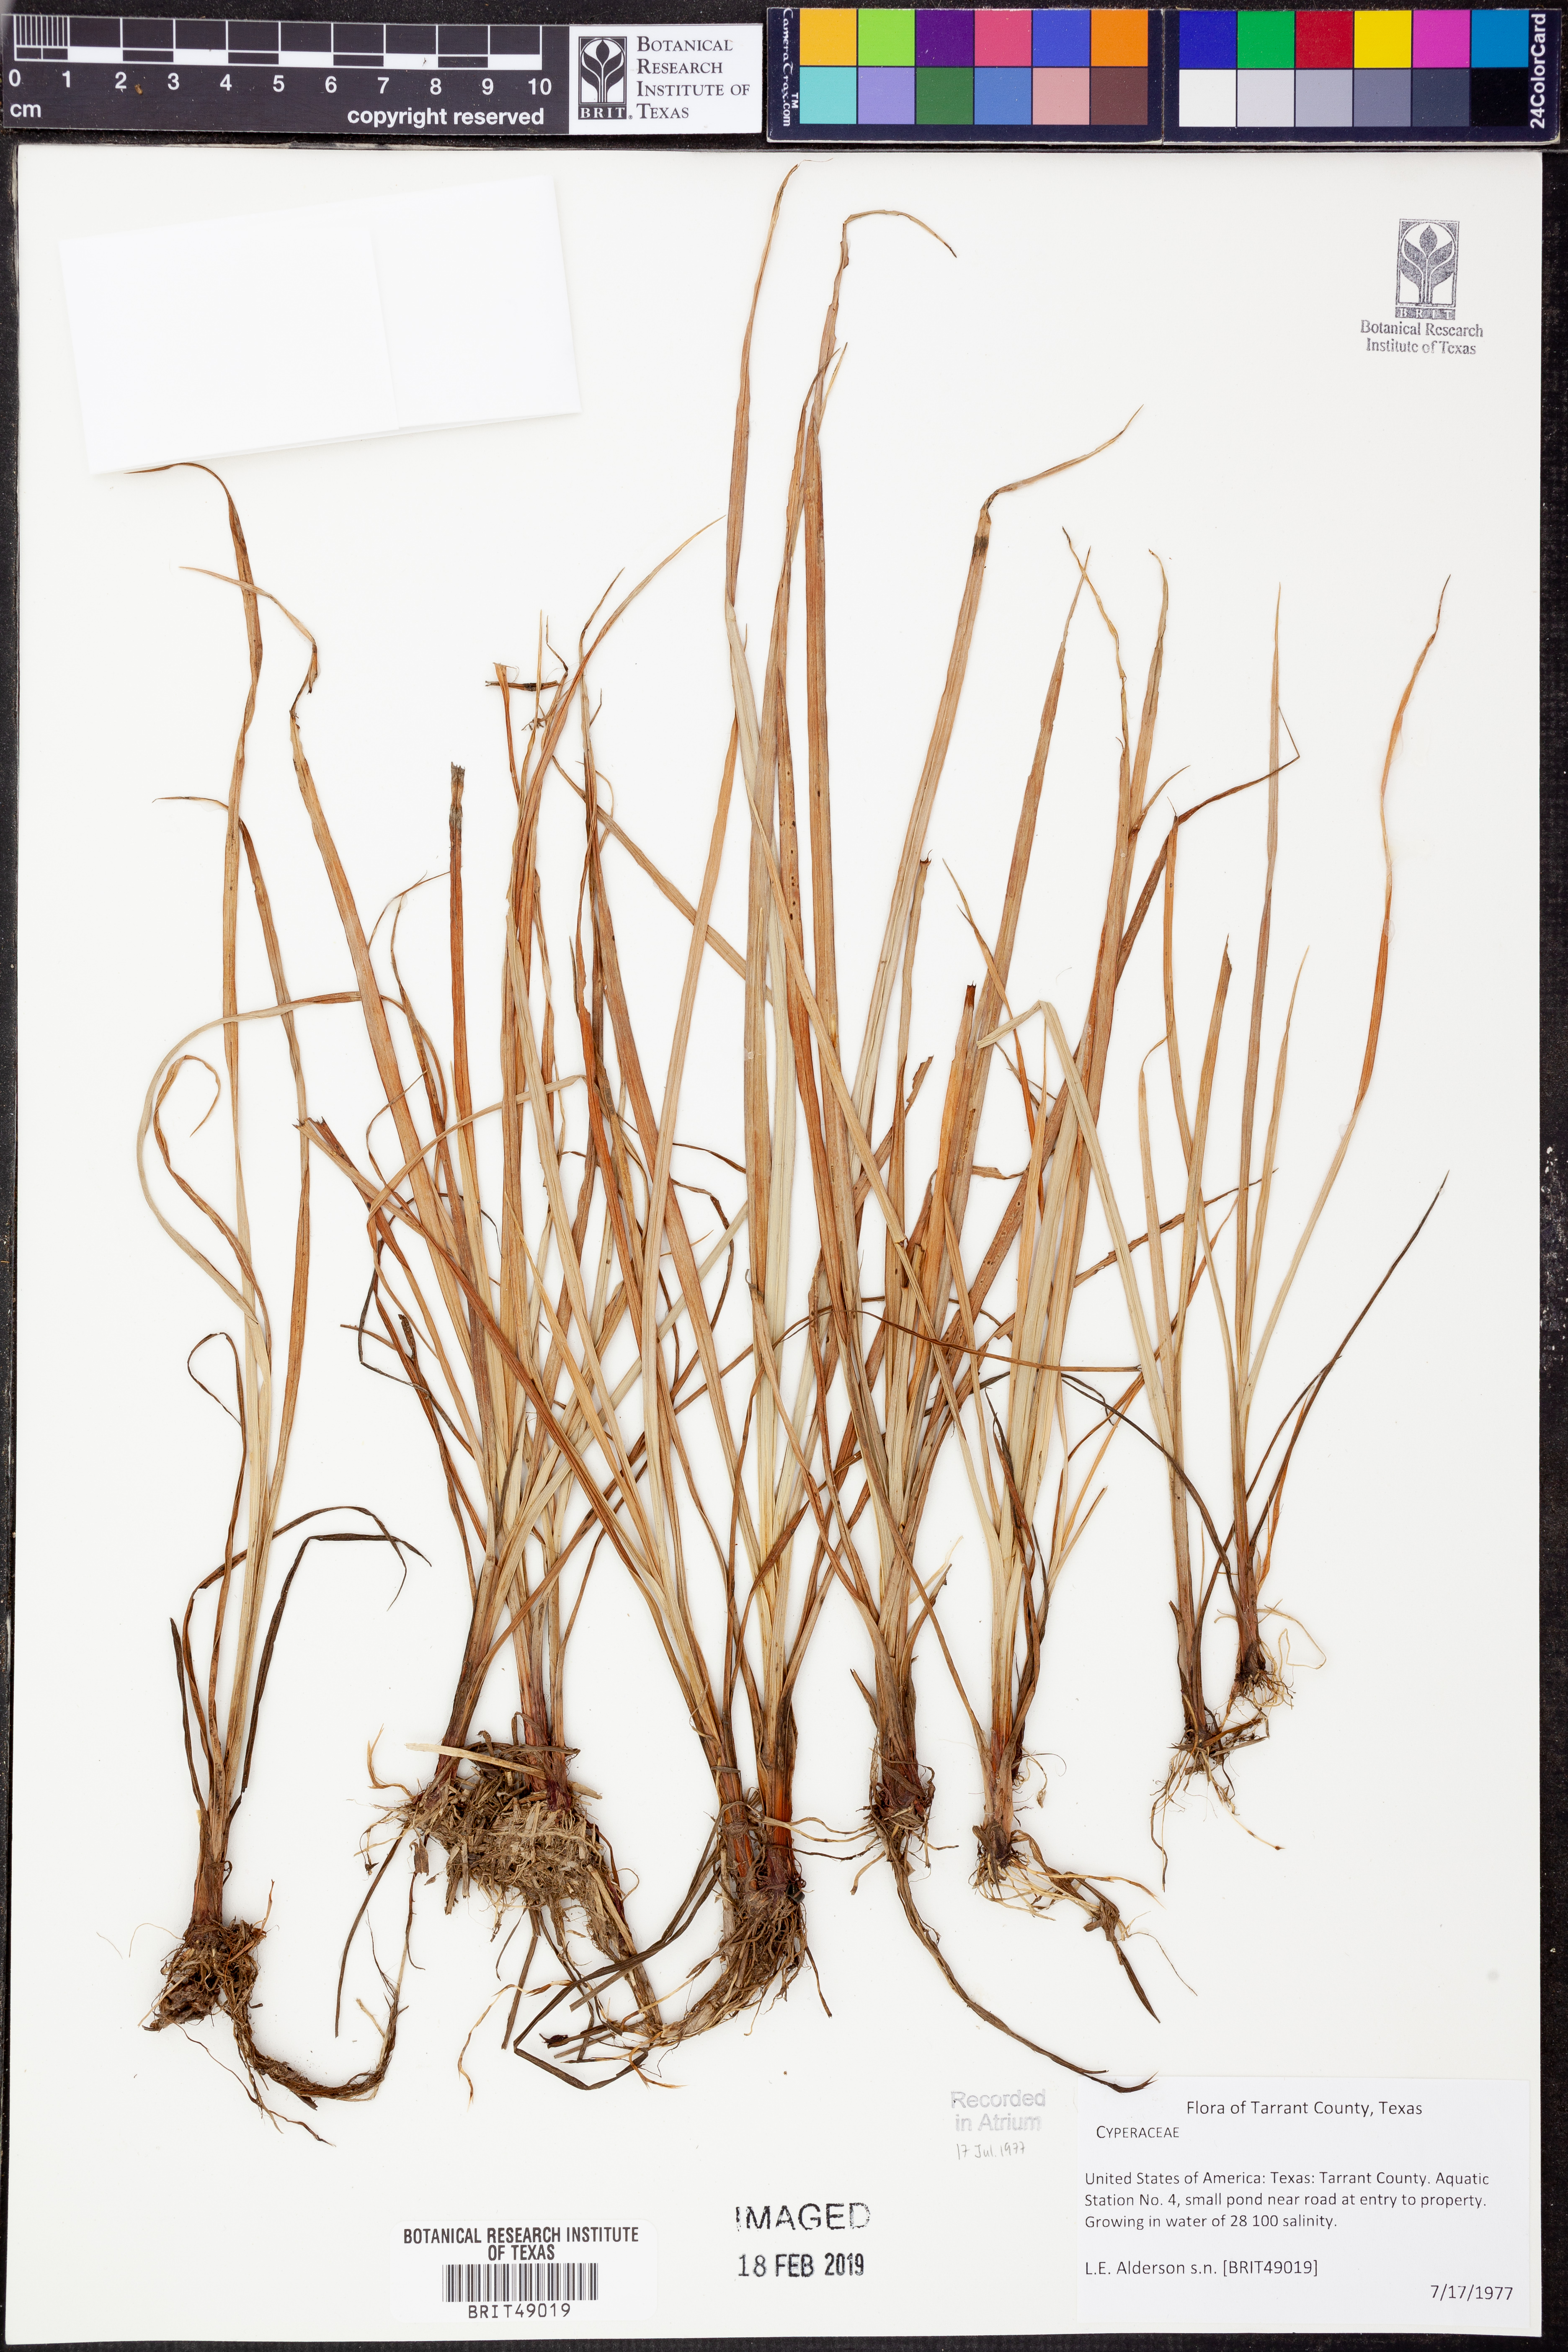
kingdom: Plantae
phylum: Tracheophyta
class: Liliopsida
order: Poales
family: Cyperaceae
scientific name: Cyperaceae
